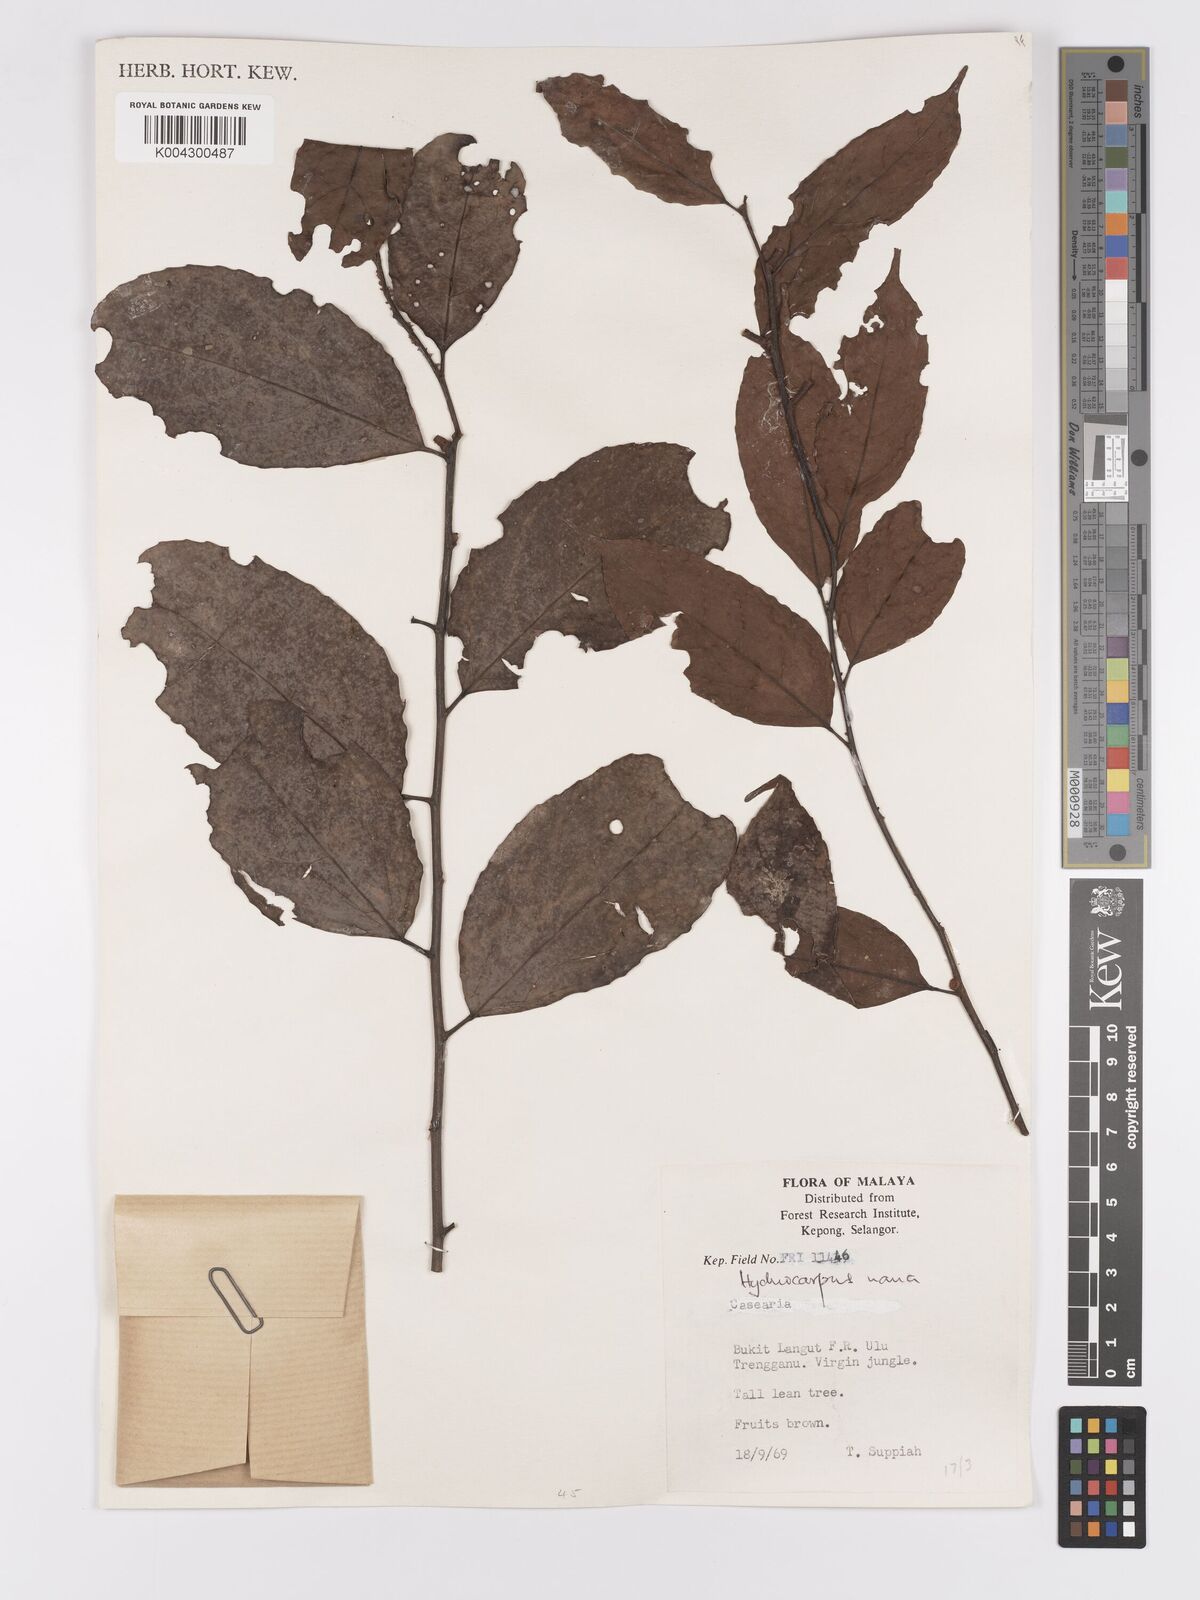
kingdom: Plantae
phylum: Tracheophyta
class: Magnoliopsida
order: Malpighiales
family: Achariaceae
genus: Hydnocarpus
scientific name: Hydnocarpus nanus
